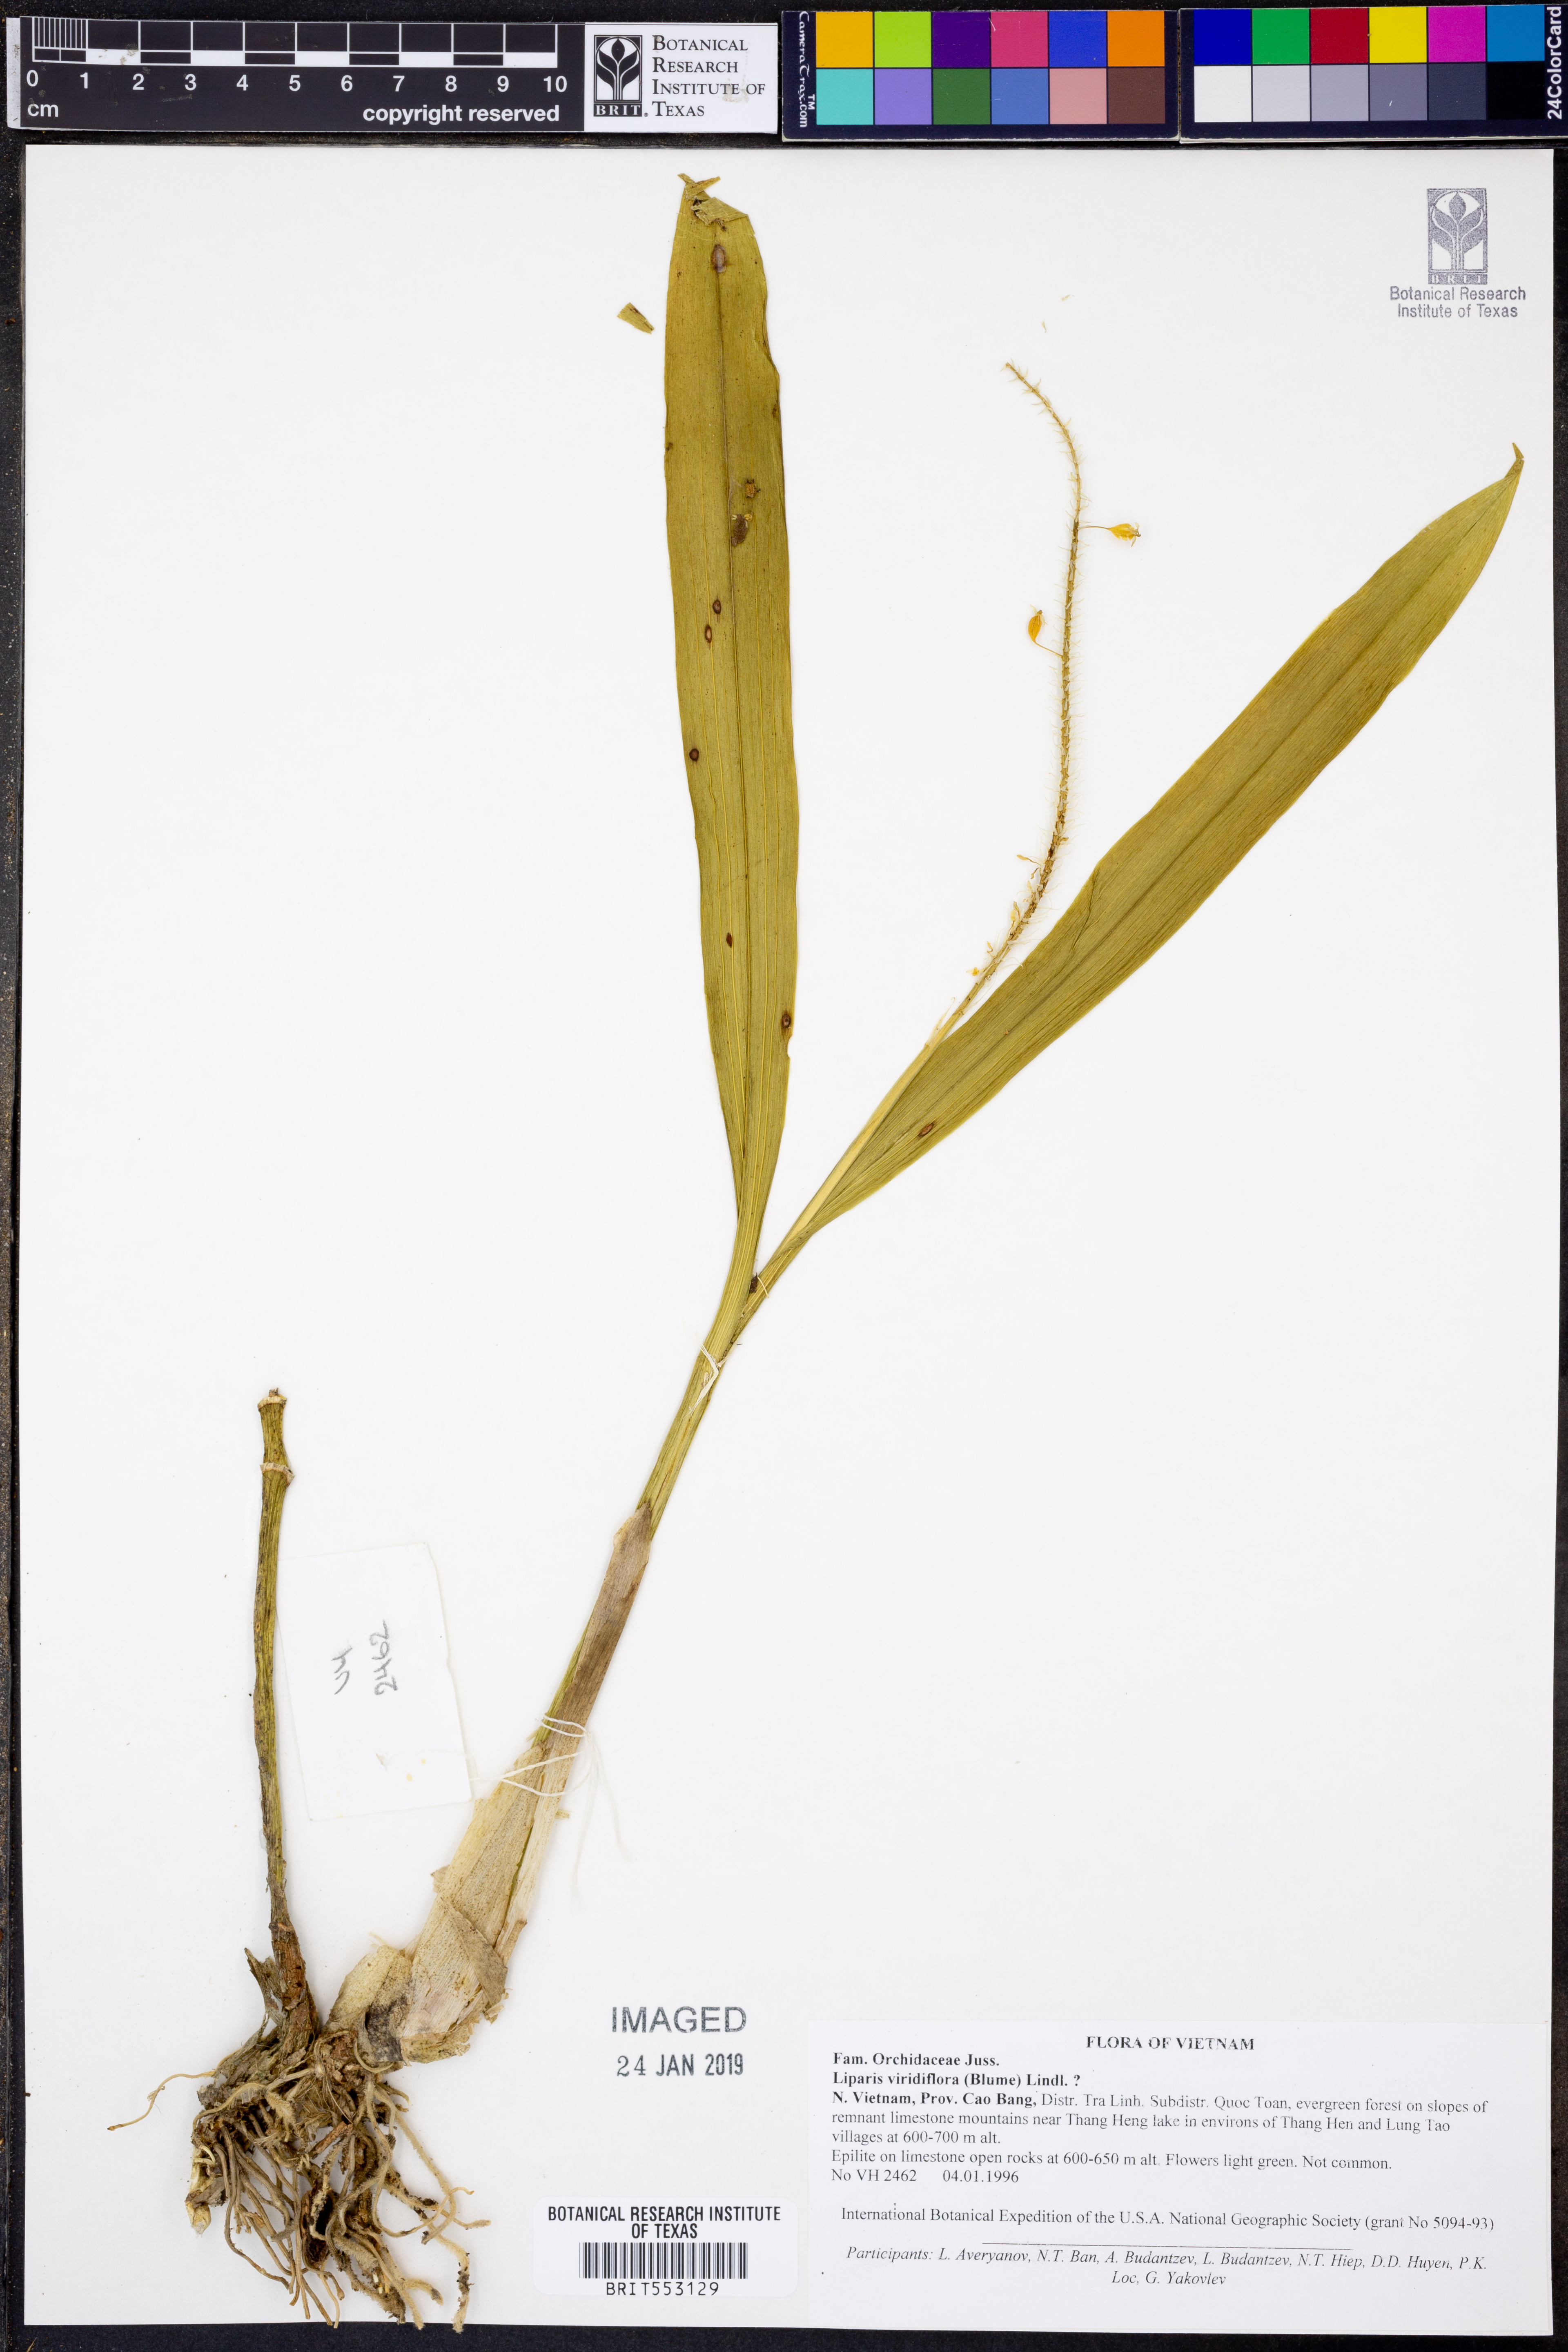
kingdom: Plantae
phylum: Tracheophyta
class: Liliopsida
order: Asparagales
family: Orchidaceae
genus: Liparis
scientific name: Liparis viridiflora
